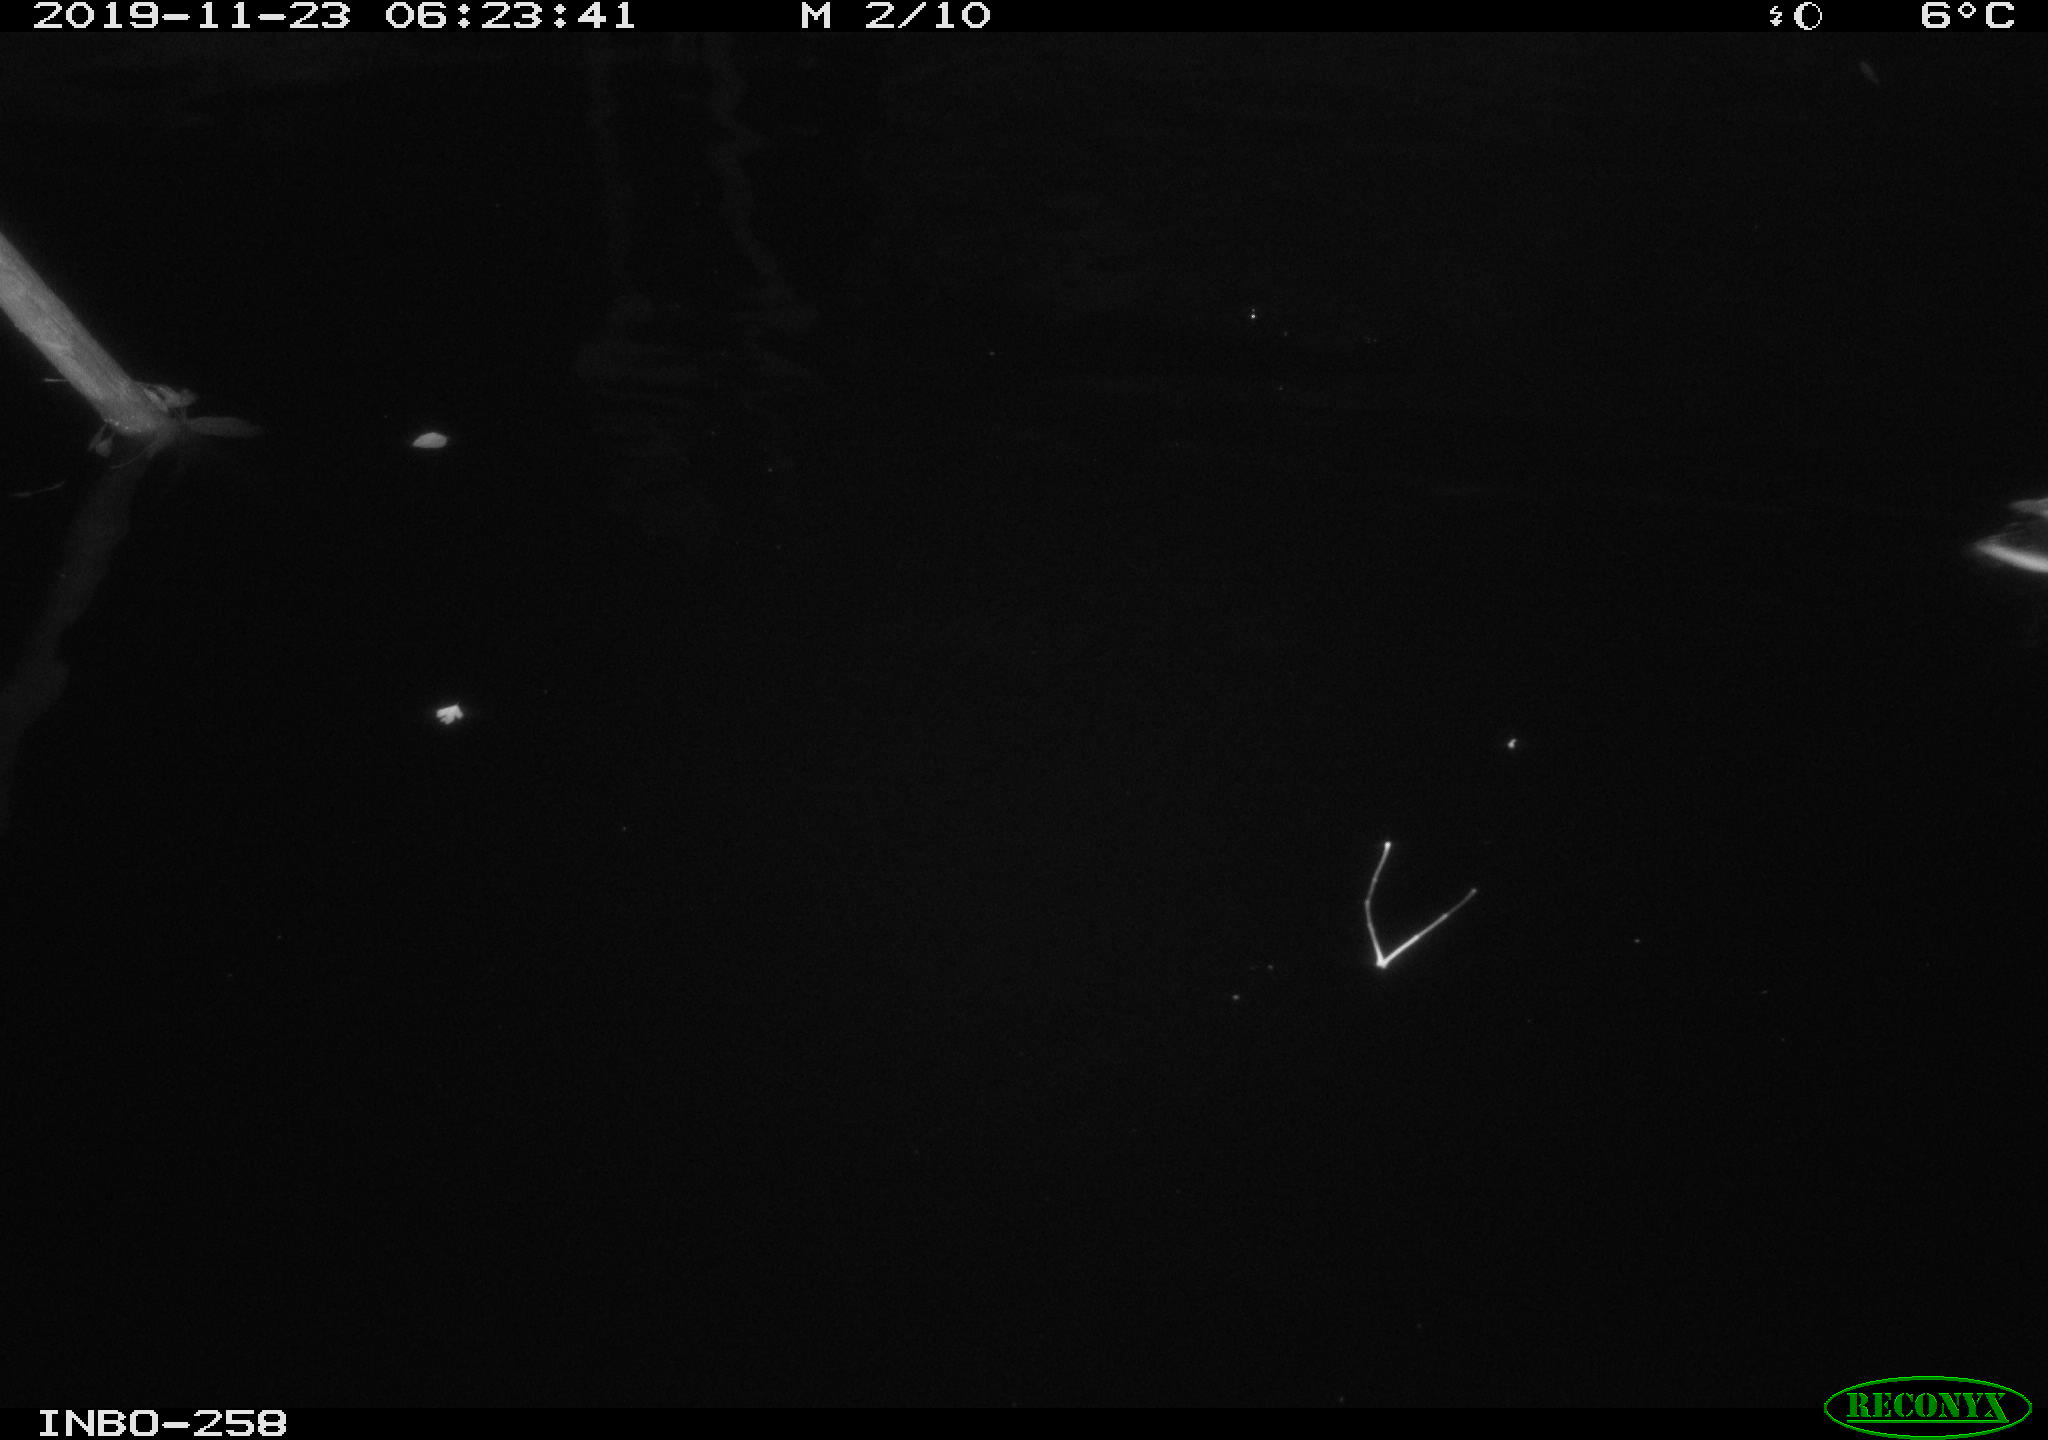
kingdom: Animalia
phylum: Chordata
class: Aves
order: Anseriformes
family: Anatidae
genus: Anas
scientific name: Anas platyrhynchos
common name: Mallard
